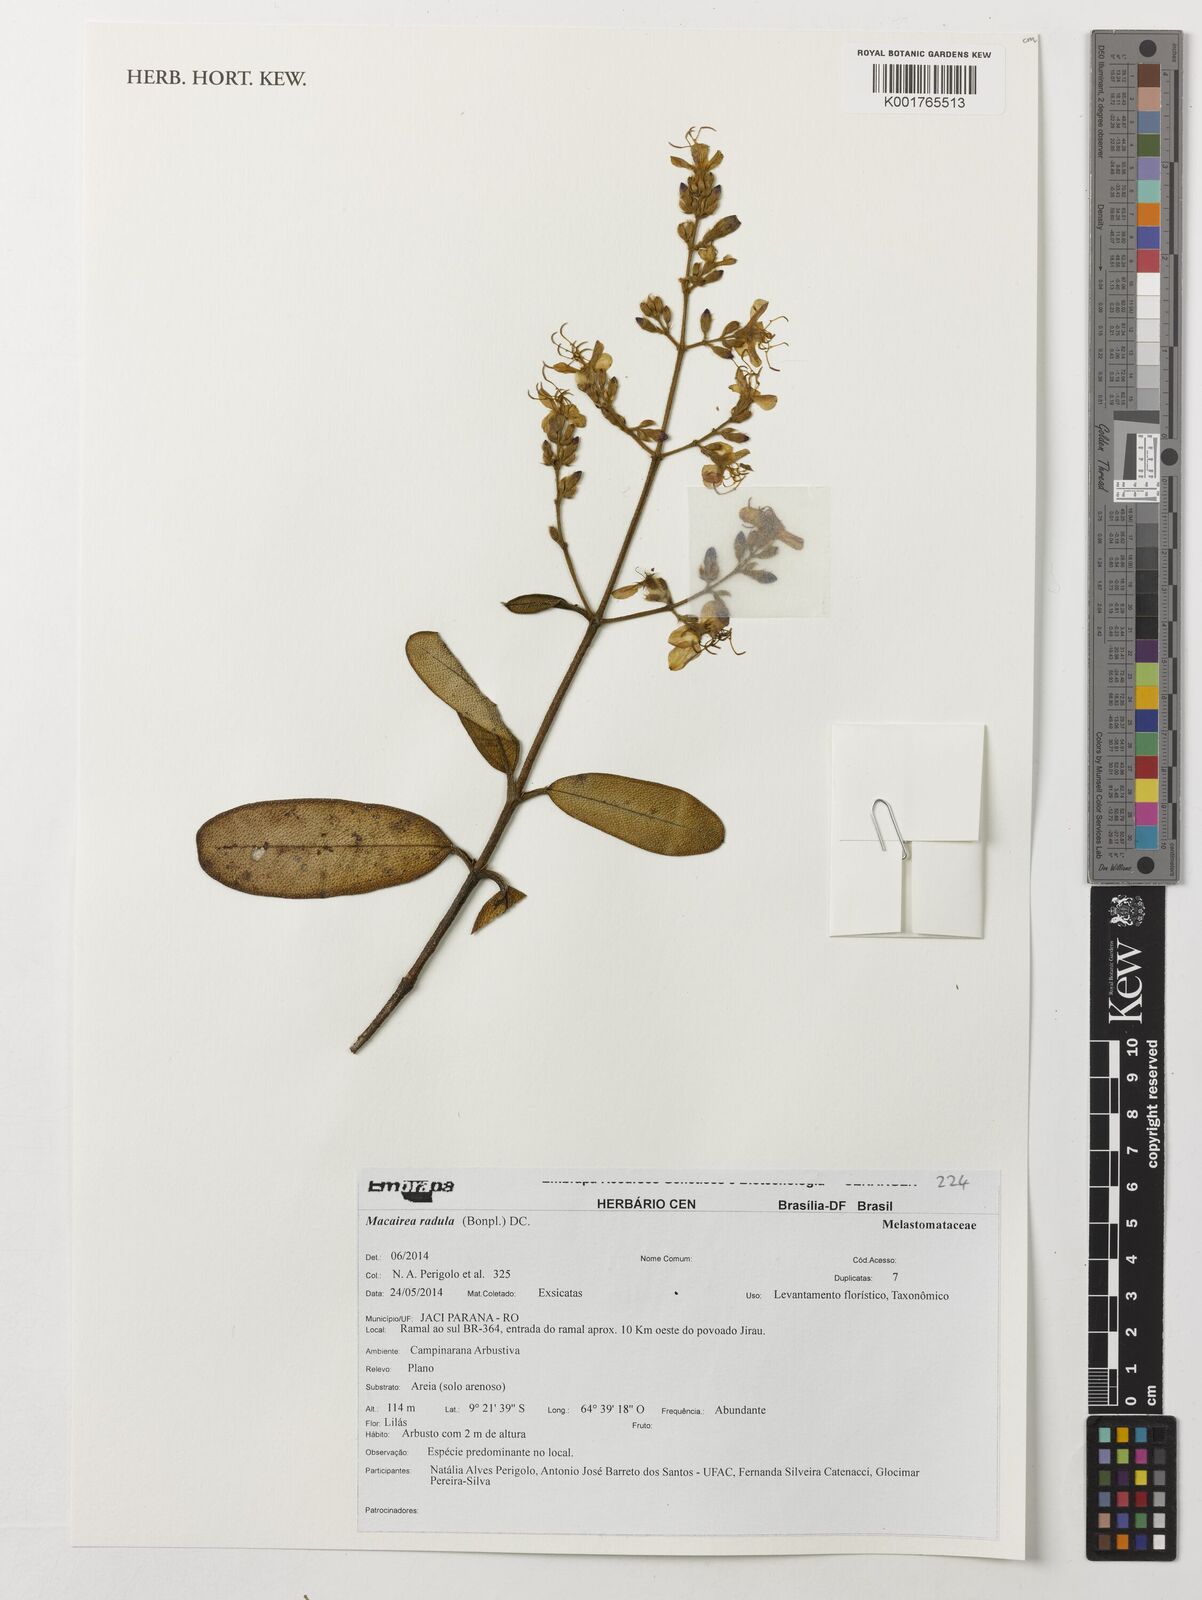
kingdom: Plantae
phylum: Tracheophyta
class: Magnoliopsida
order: Myrtales
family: Melastomataceae
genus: Macairea
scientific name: Macairea radula
